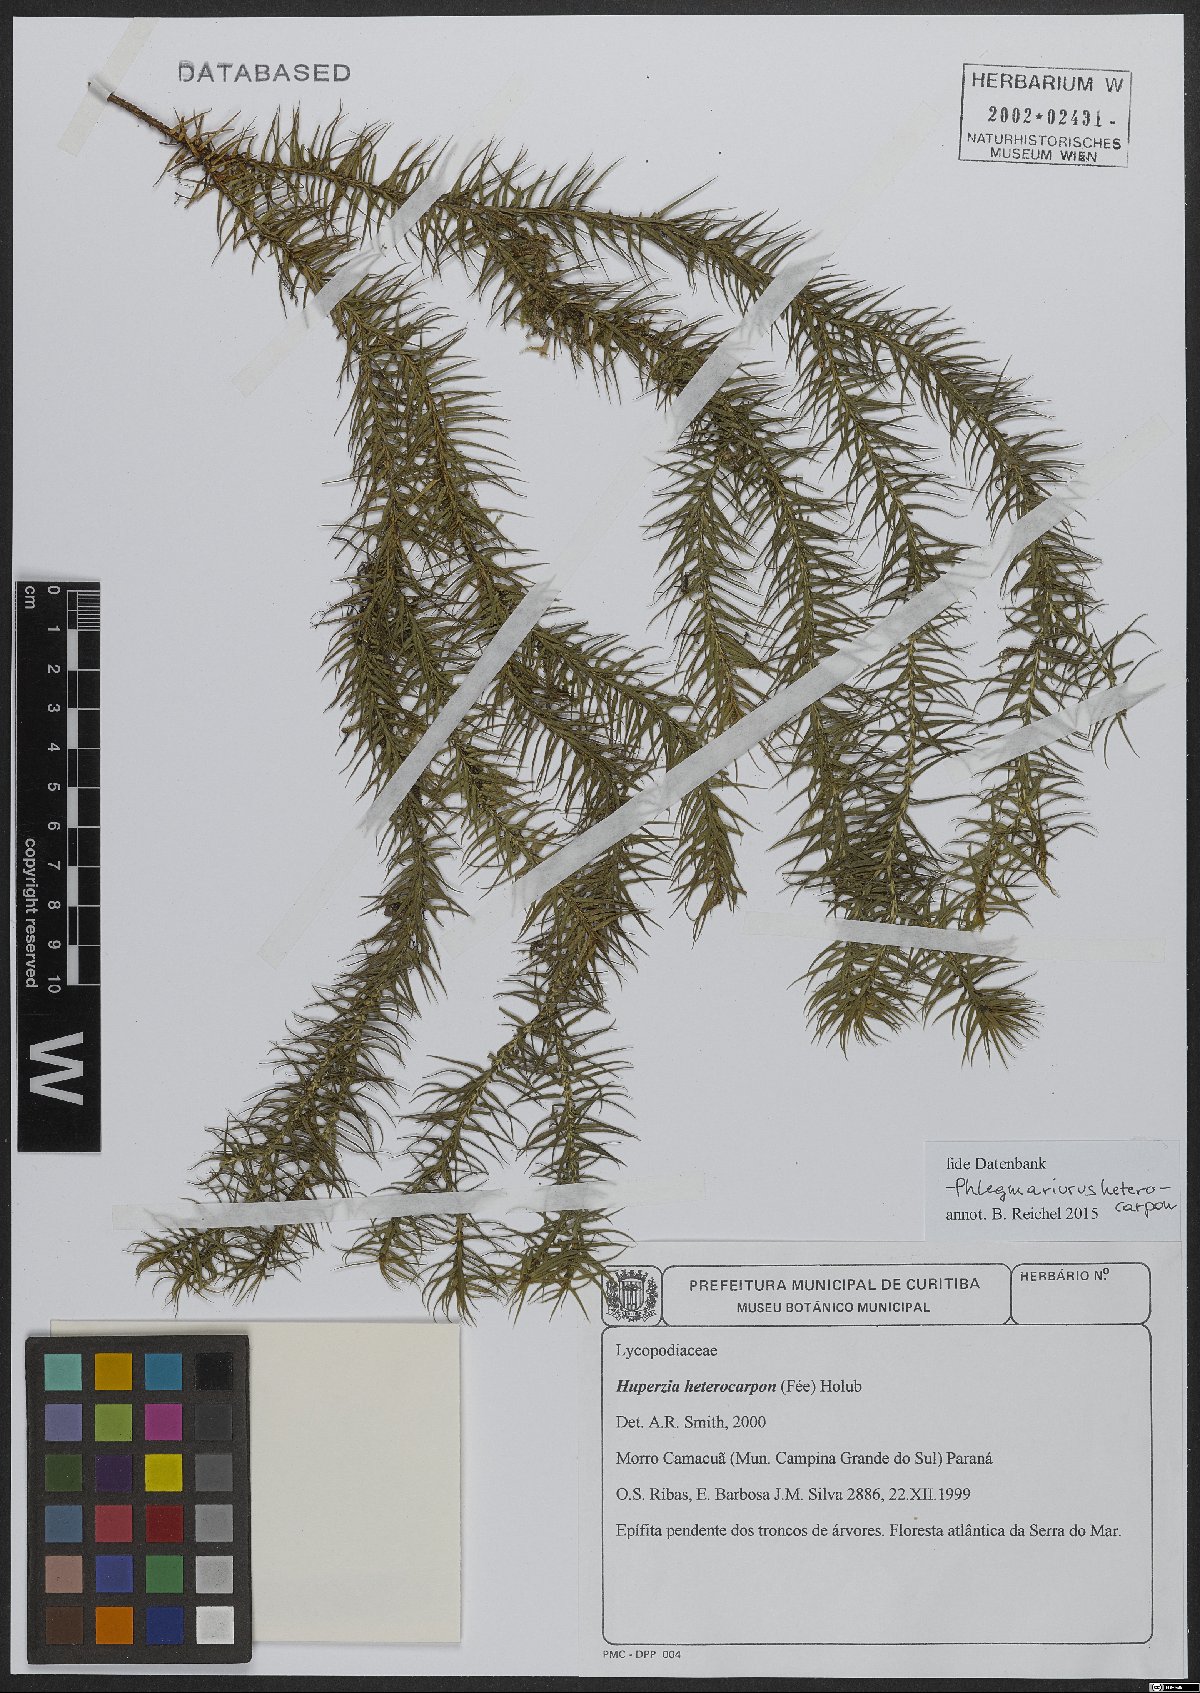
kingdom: Plantae
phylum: Tracheophyta
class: Lycopodiopsida
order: Lycopodiales
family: Lycopodiaceae
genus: Phlegmariurus
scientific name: Phlegmariurus heterocarpos
